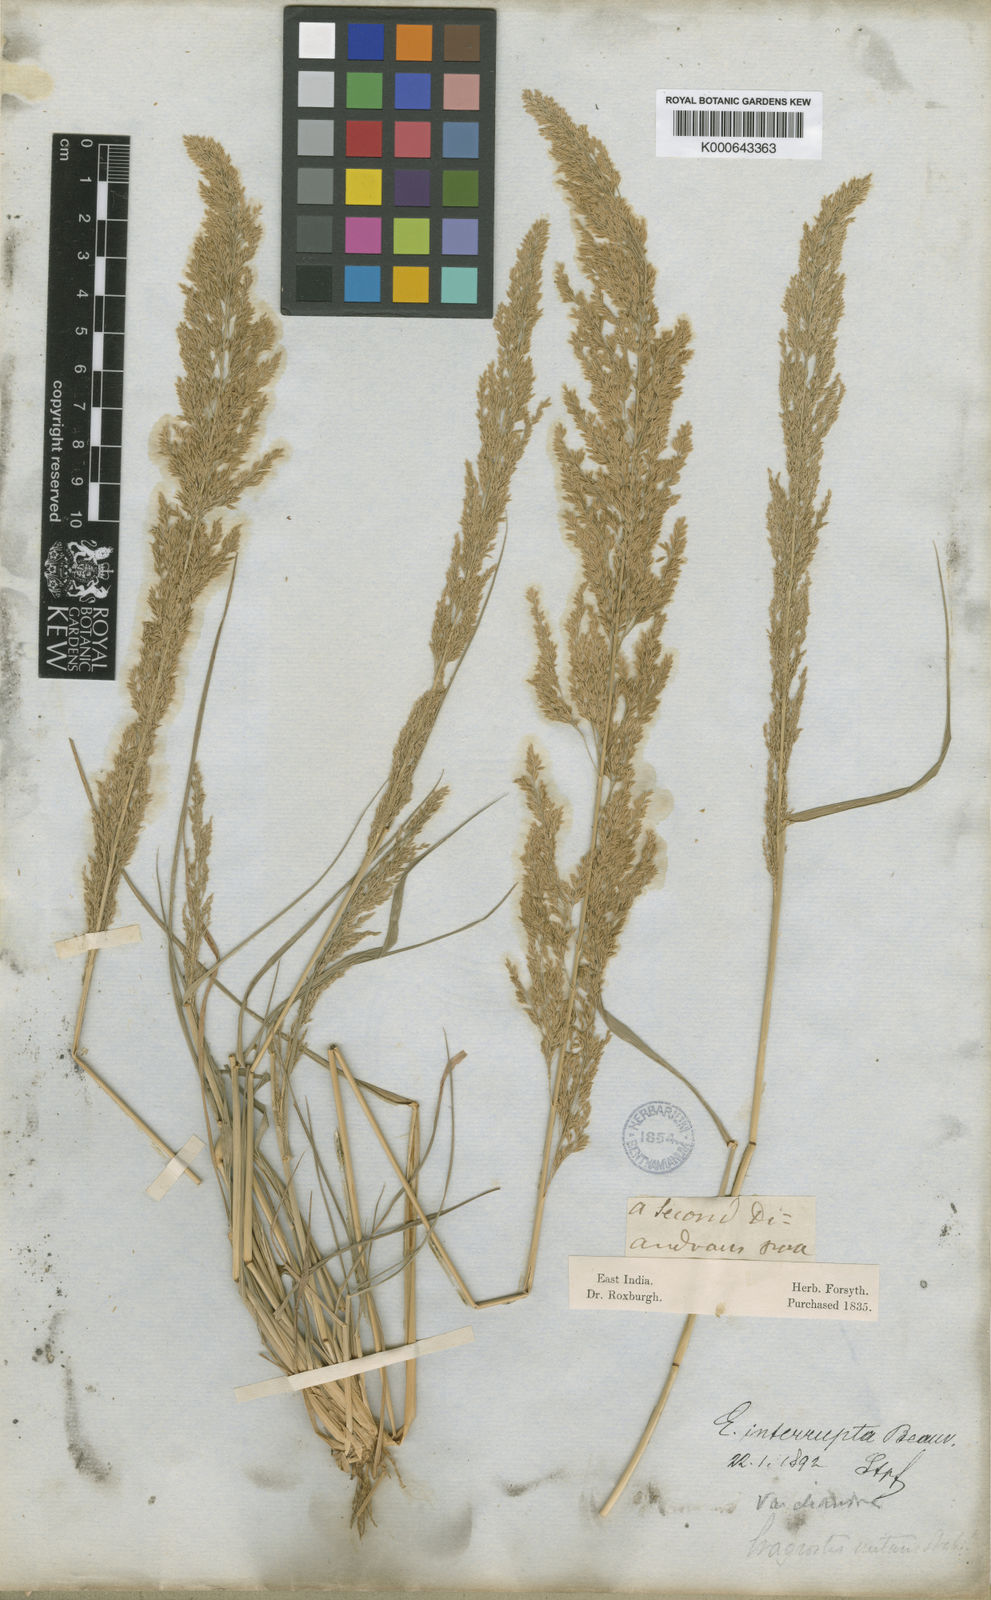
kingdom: Plantae
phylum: Tracheophyta
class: Liliopsida
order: Poales
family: Poaceae
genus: Eragrostis
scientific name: Eragrostis japonica
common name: Pond lovegrass
